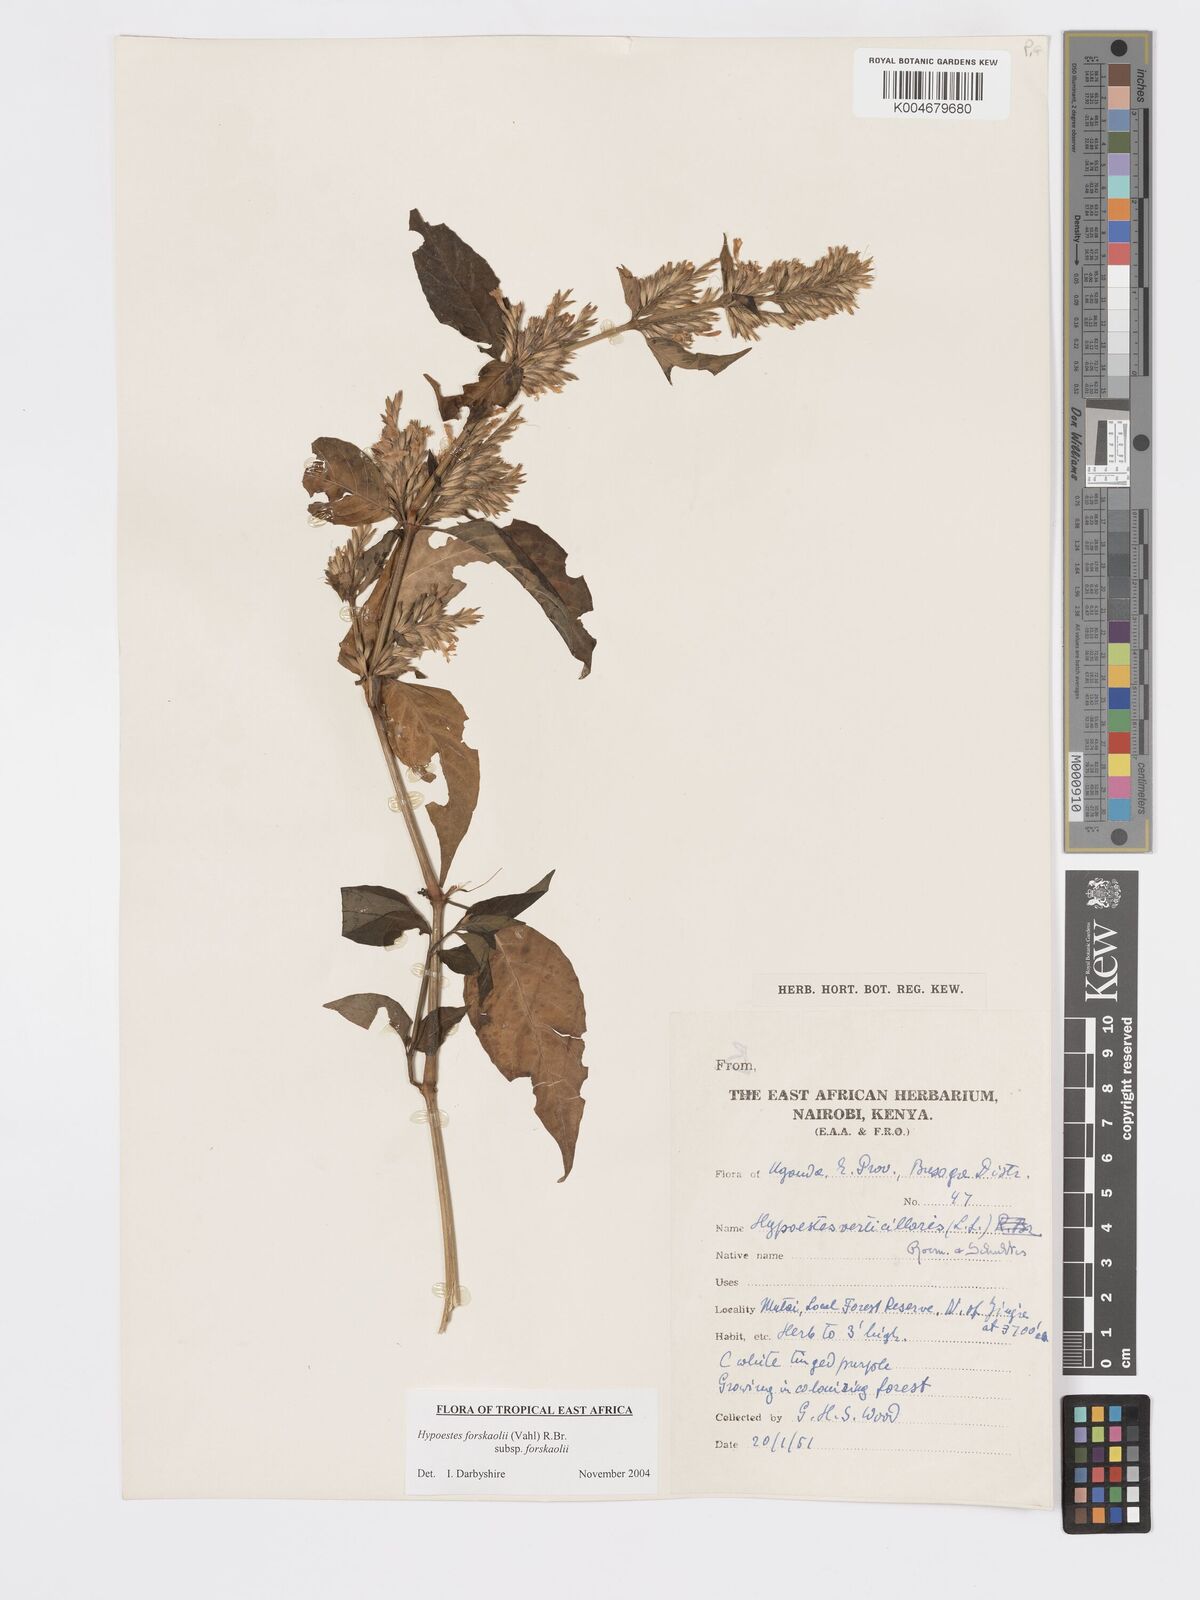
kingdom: Plantae
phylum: Tracheophyta
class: Magnoliopsida
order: Lamiales
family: Acanthaceae
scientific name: Acanthaceae
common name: Acanthaceae
